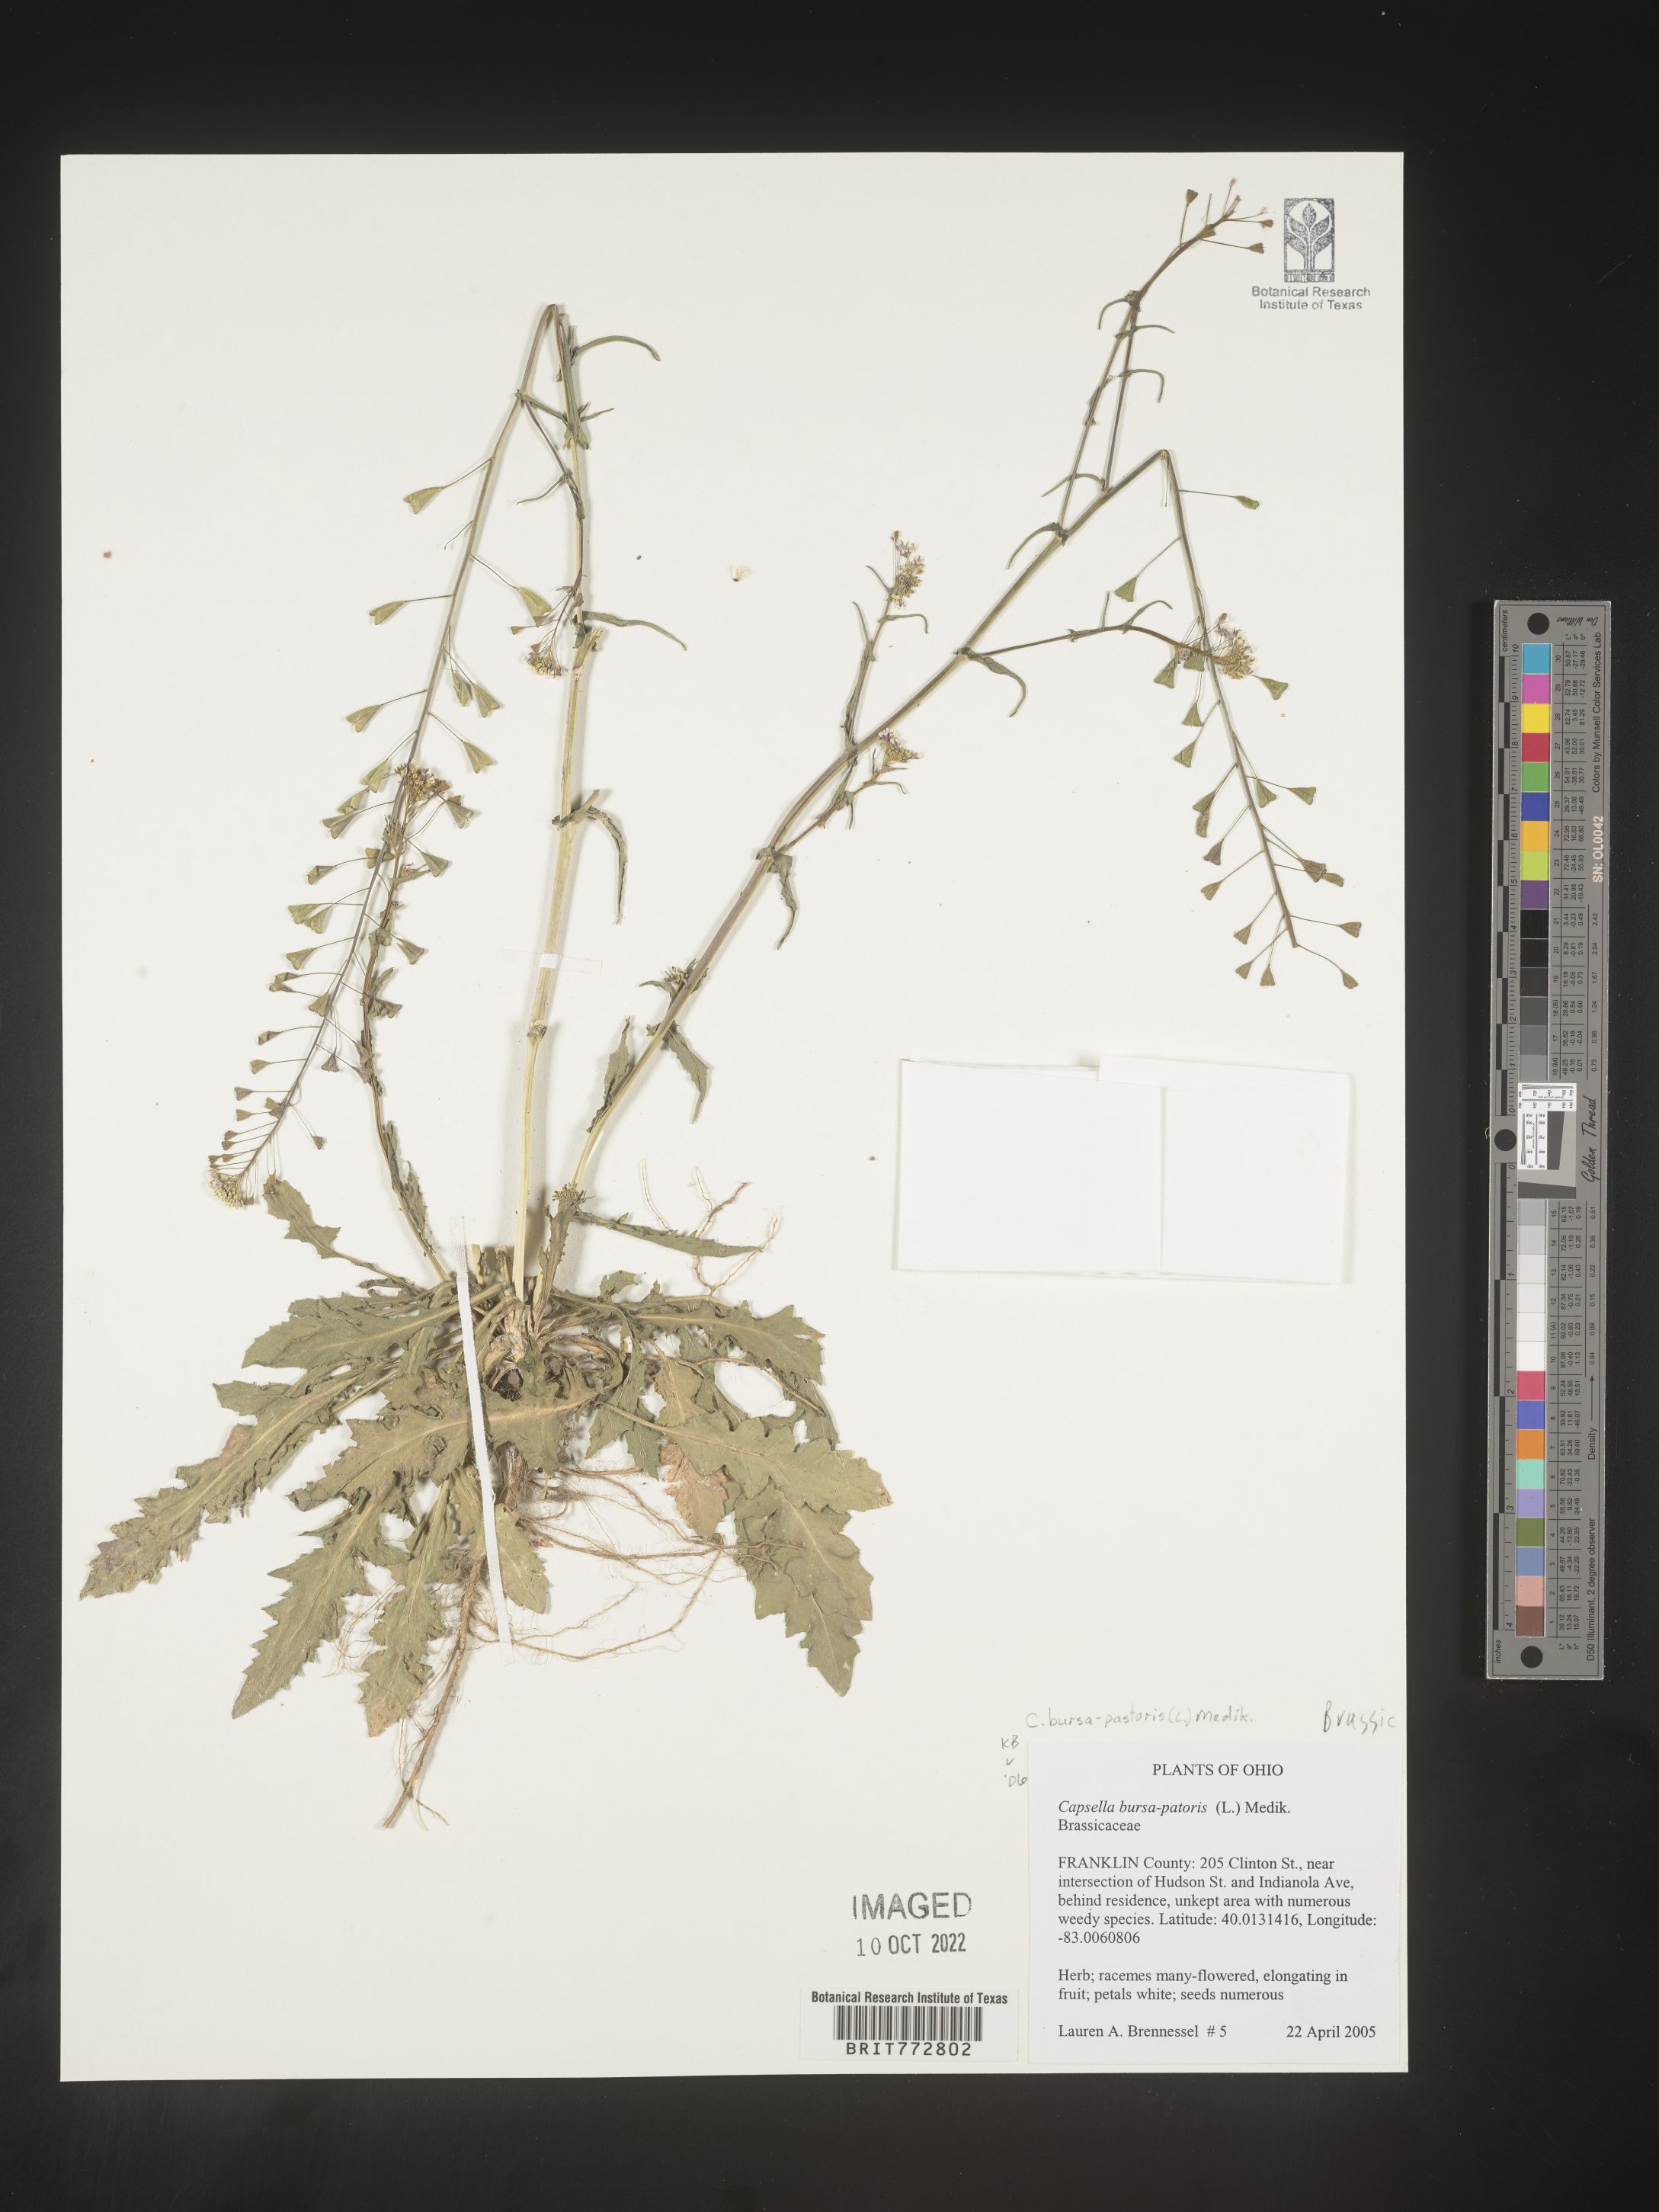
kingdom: Plantae
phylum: Tracheophyta
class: Magnoliopsida
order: Brassicales
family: Brassicaceae
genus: Capsella
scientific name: Capsella bursa-pastoris
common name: Shepherd's purse
